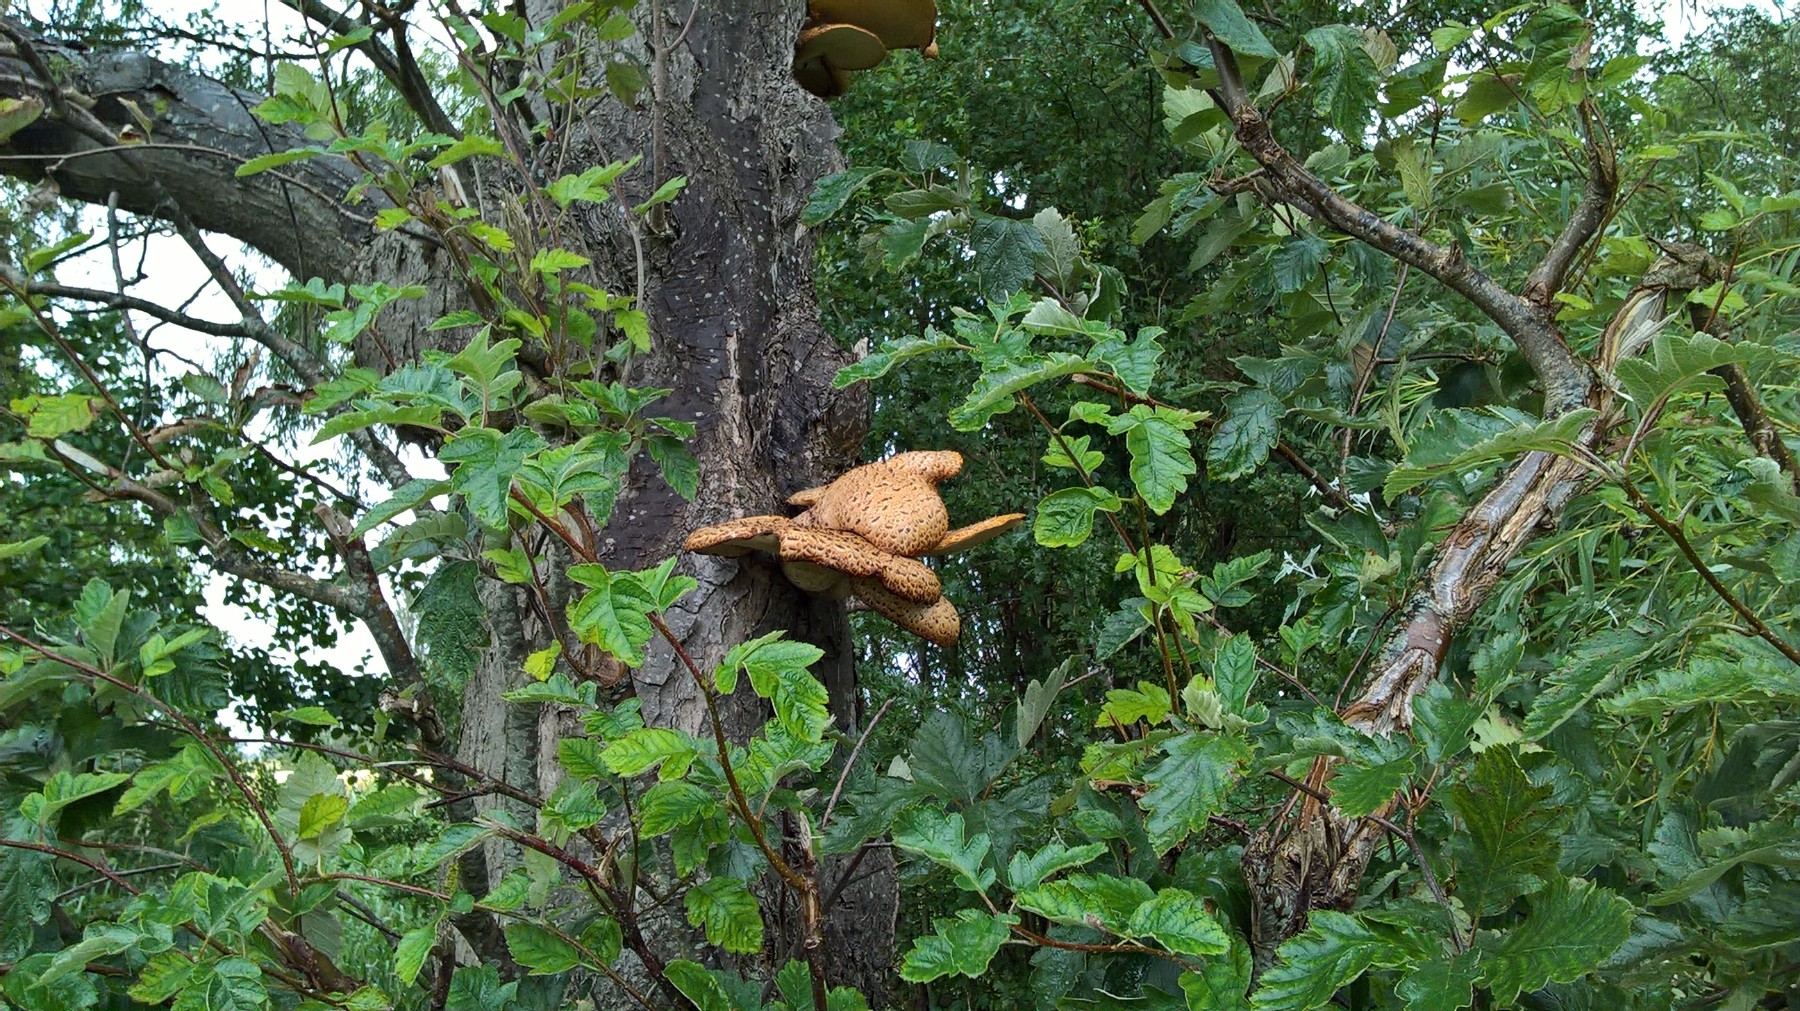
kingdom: Fungi
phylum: Basidiomycota
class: Agaricomycetes
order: Polyporales
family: Polyporaceae
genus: Cerioporus
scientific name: Cerioporus squamosus
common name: skællet stilkporesvamp
